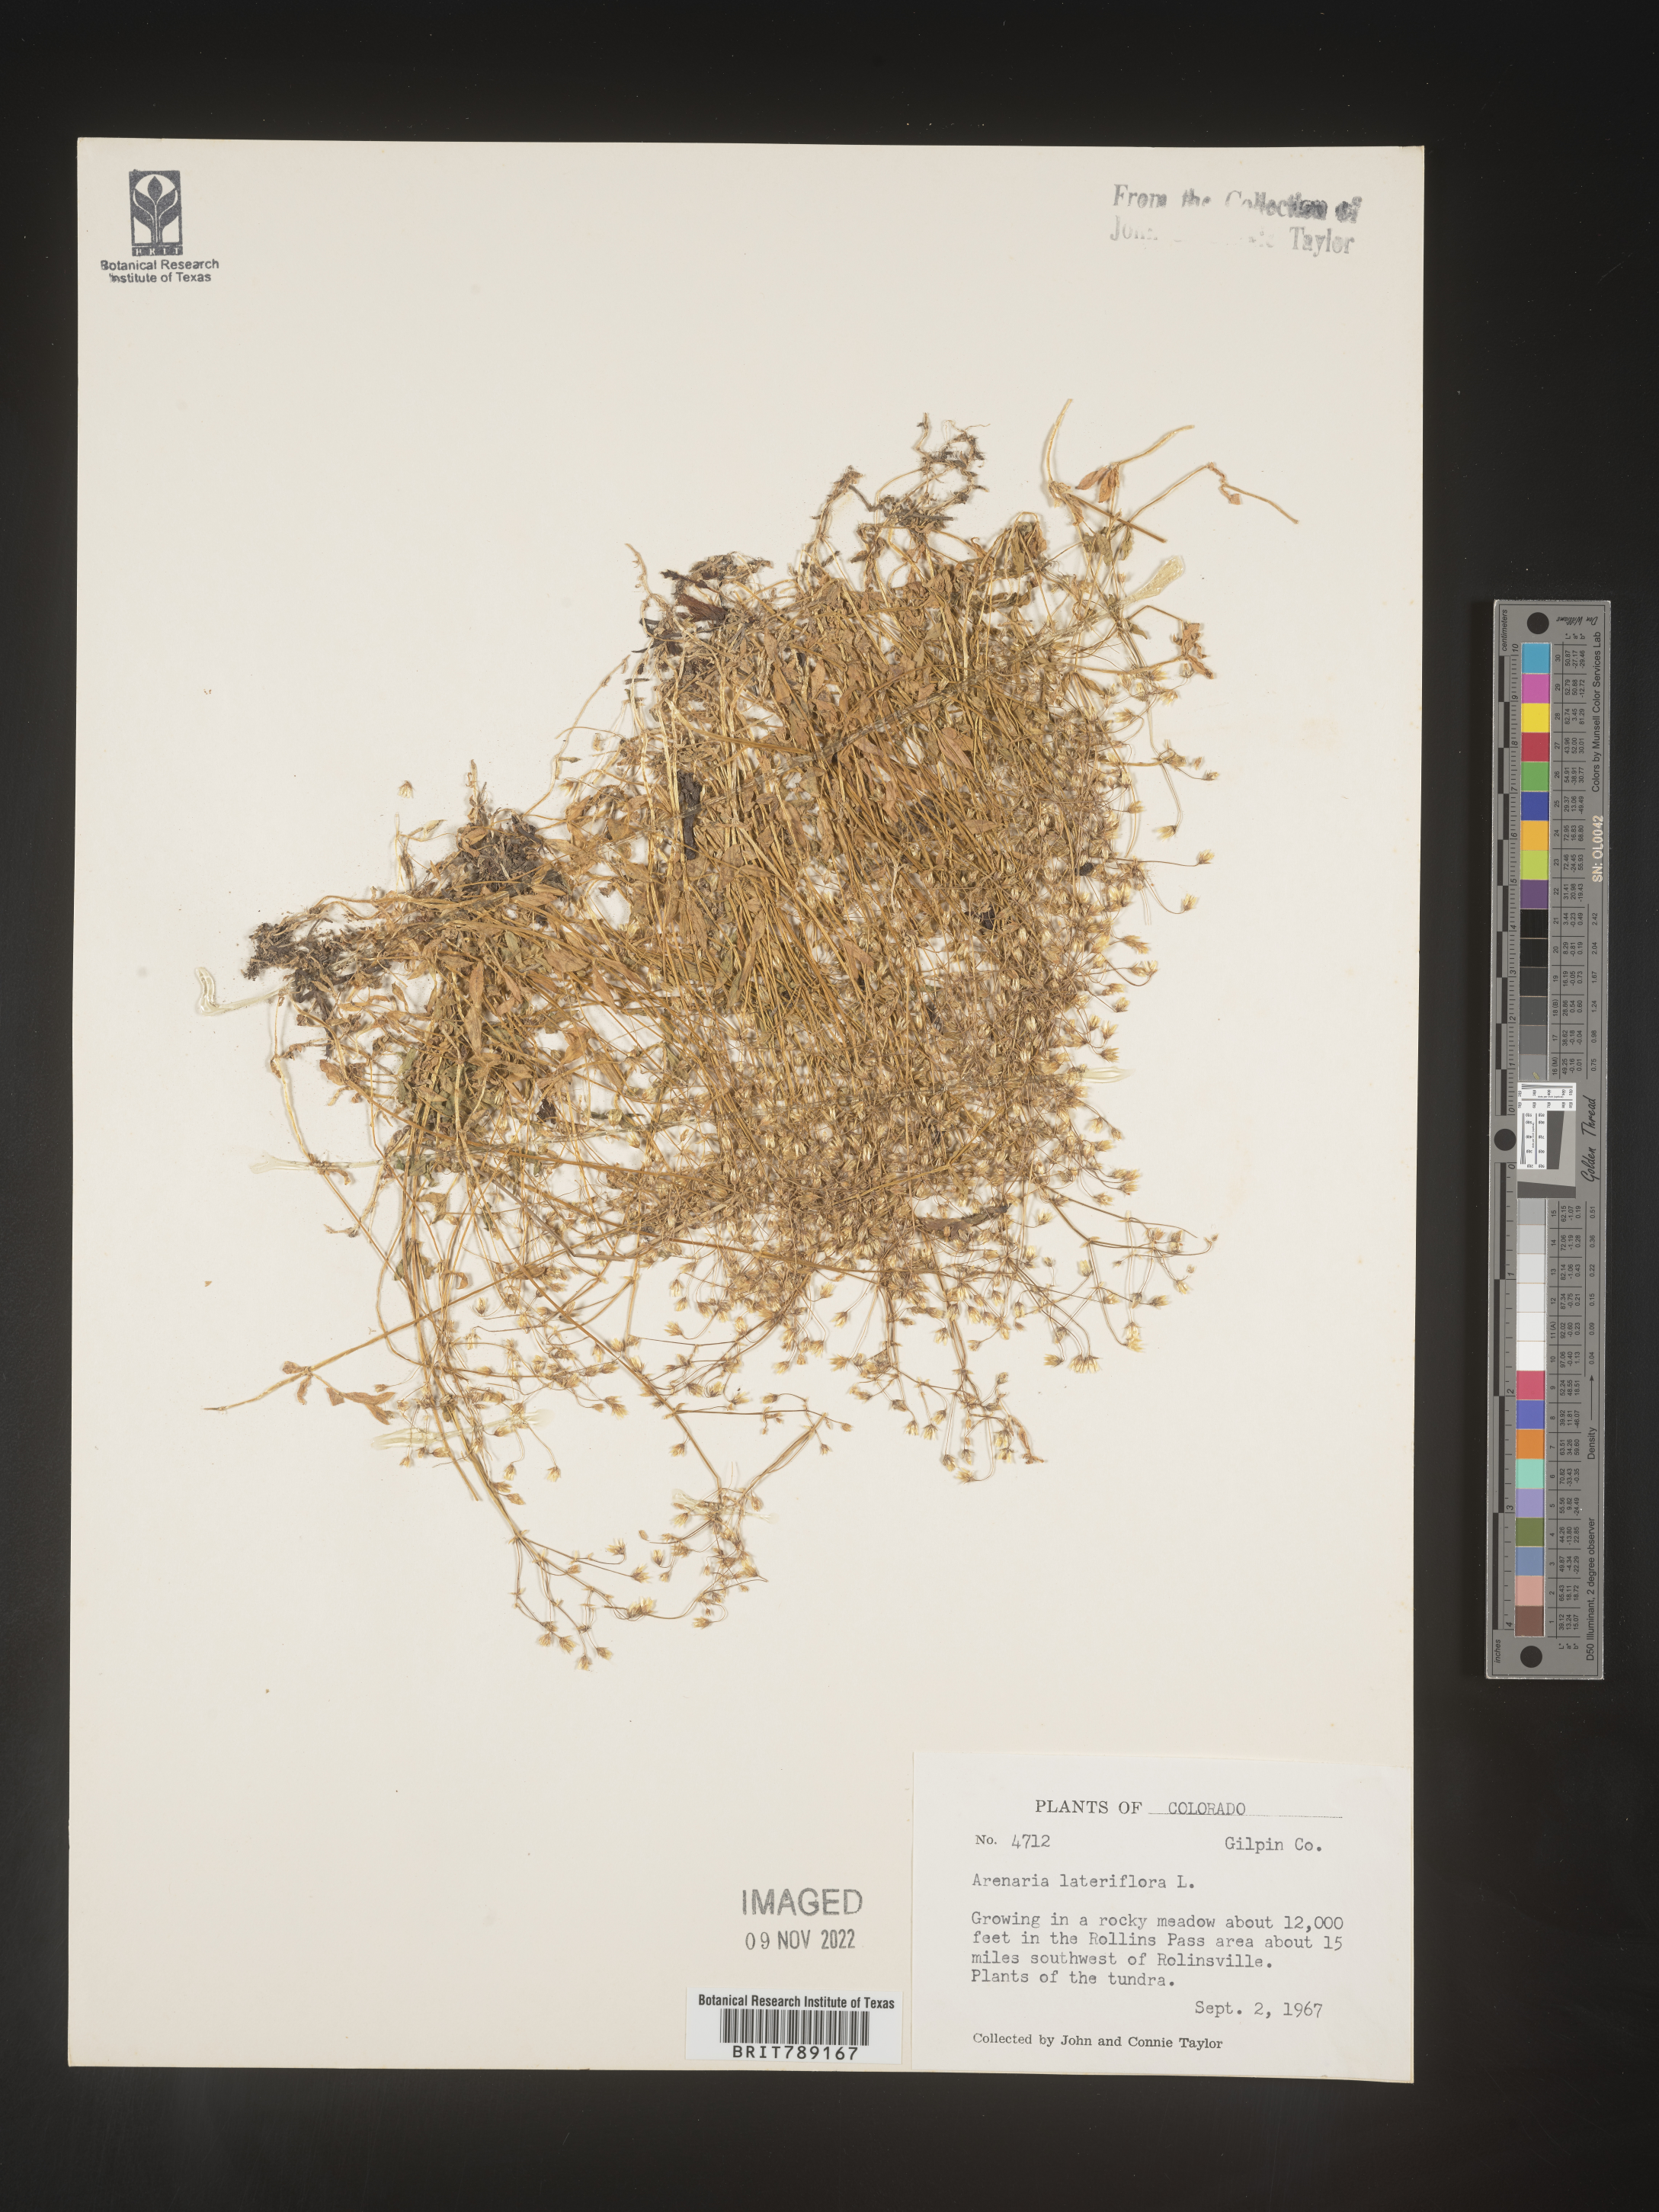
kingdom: Plantae
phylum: Tracheophyta
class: Magnoliopsida
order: Caryophyllales
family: Caryophyllaceae
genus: Arenaria
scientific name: Arenaria
